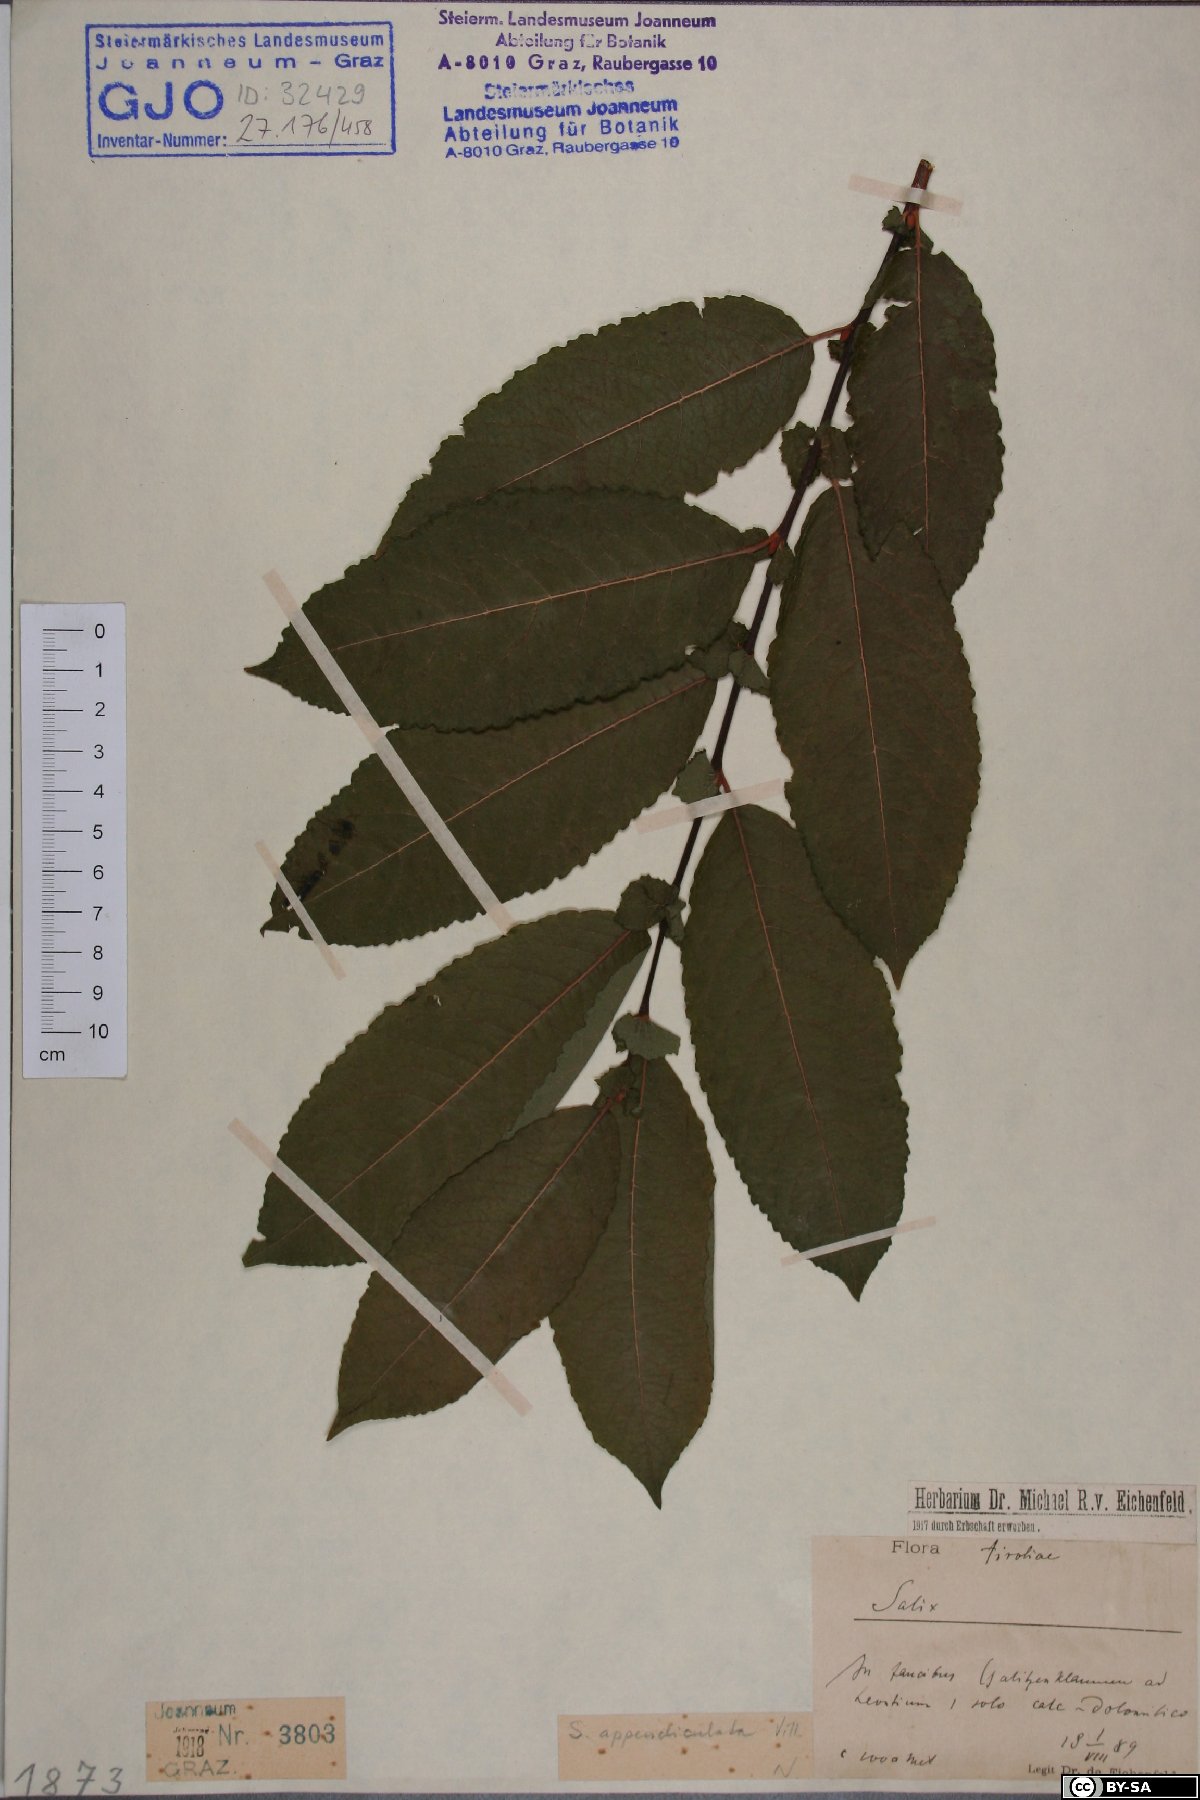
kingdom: Plantae
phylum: Tracheophyta
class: Magnoliopsida
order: Malpighiales
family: Salicaceae
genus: Salix
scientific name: Salix
